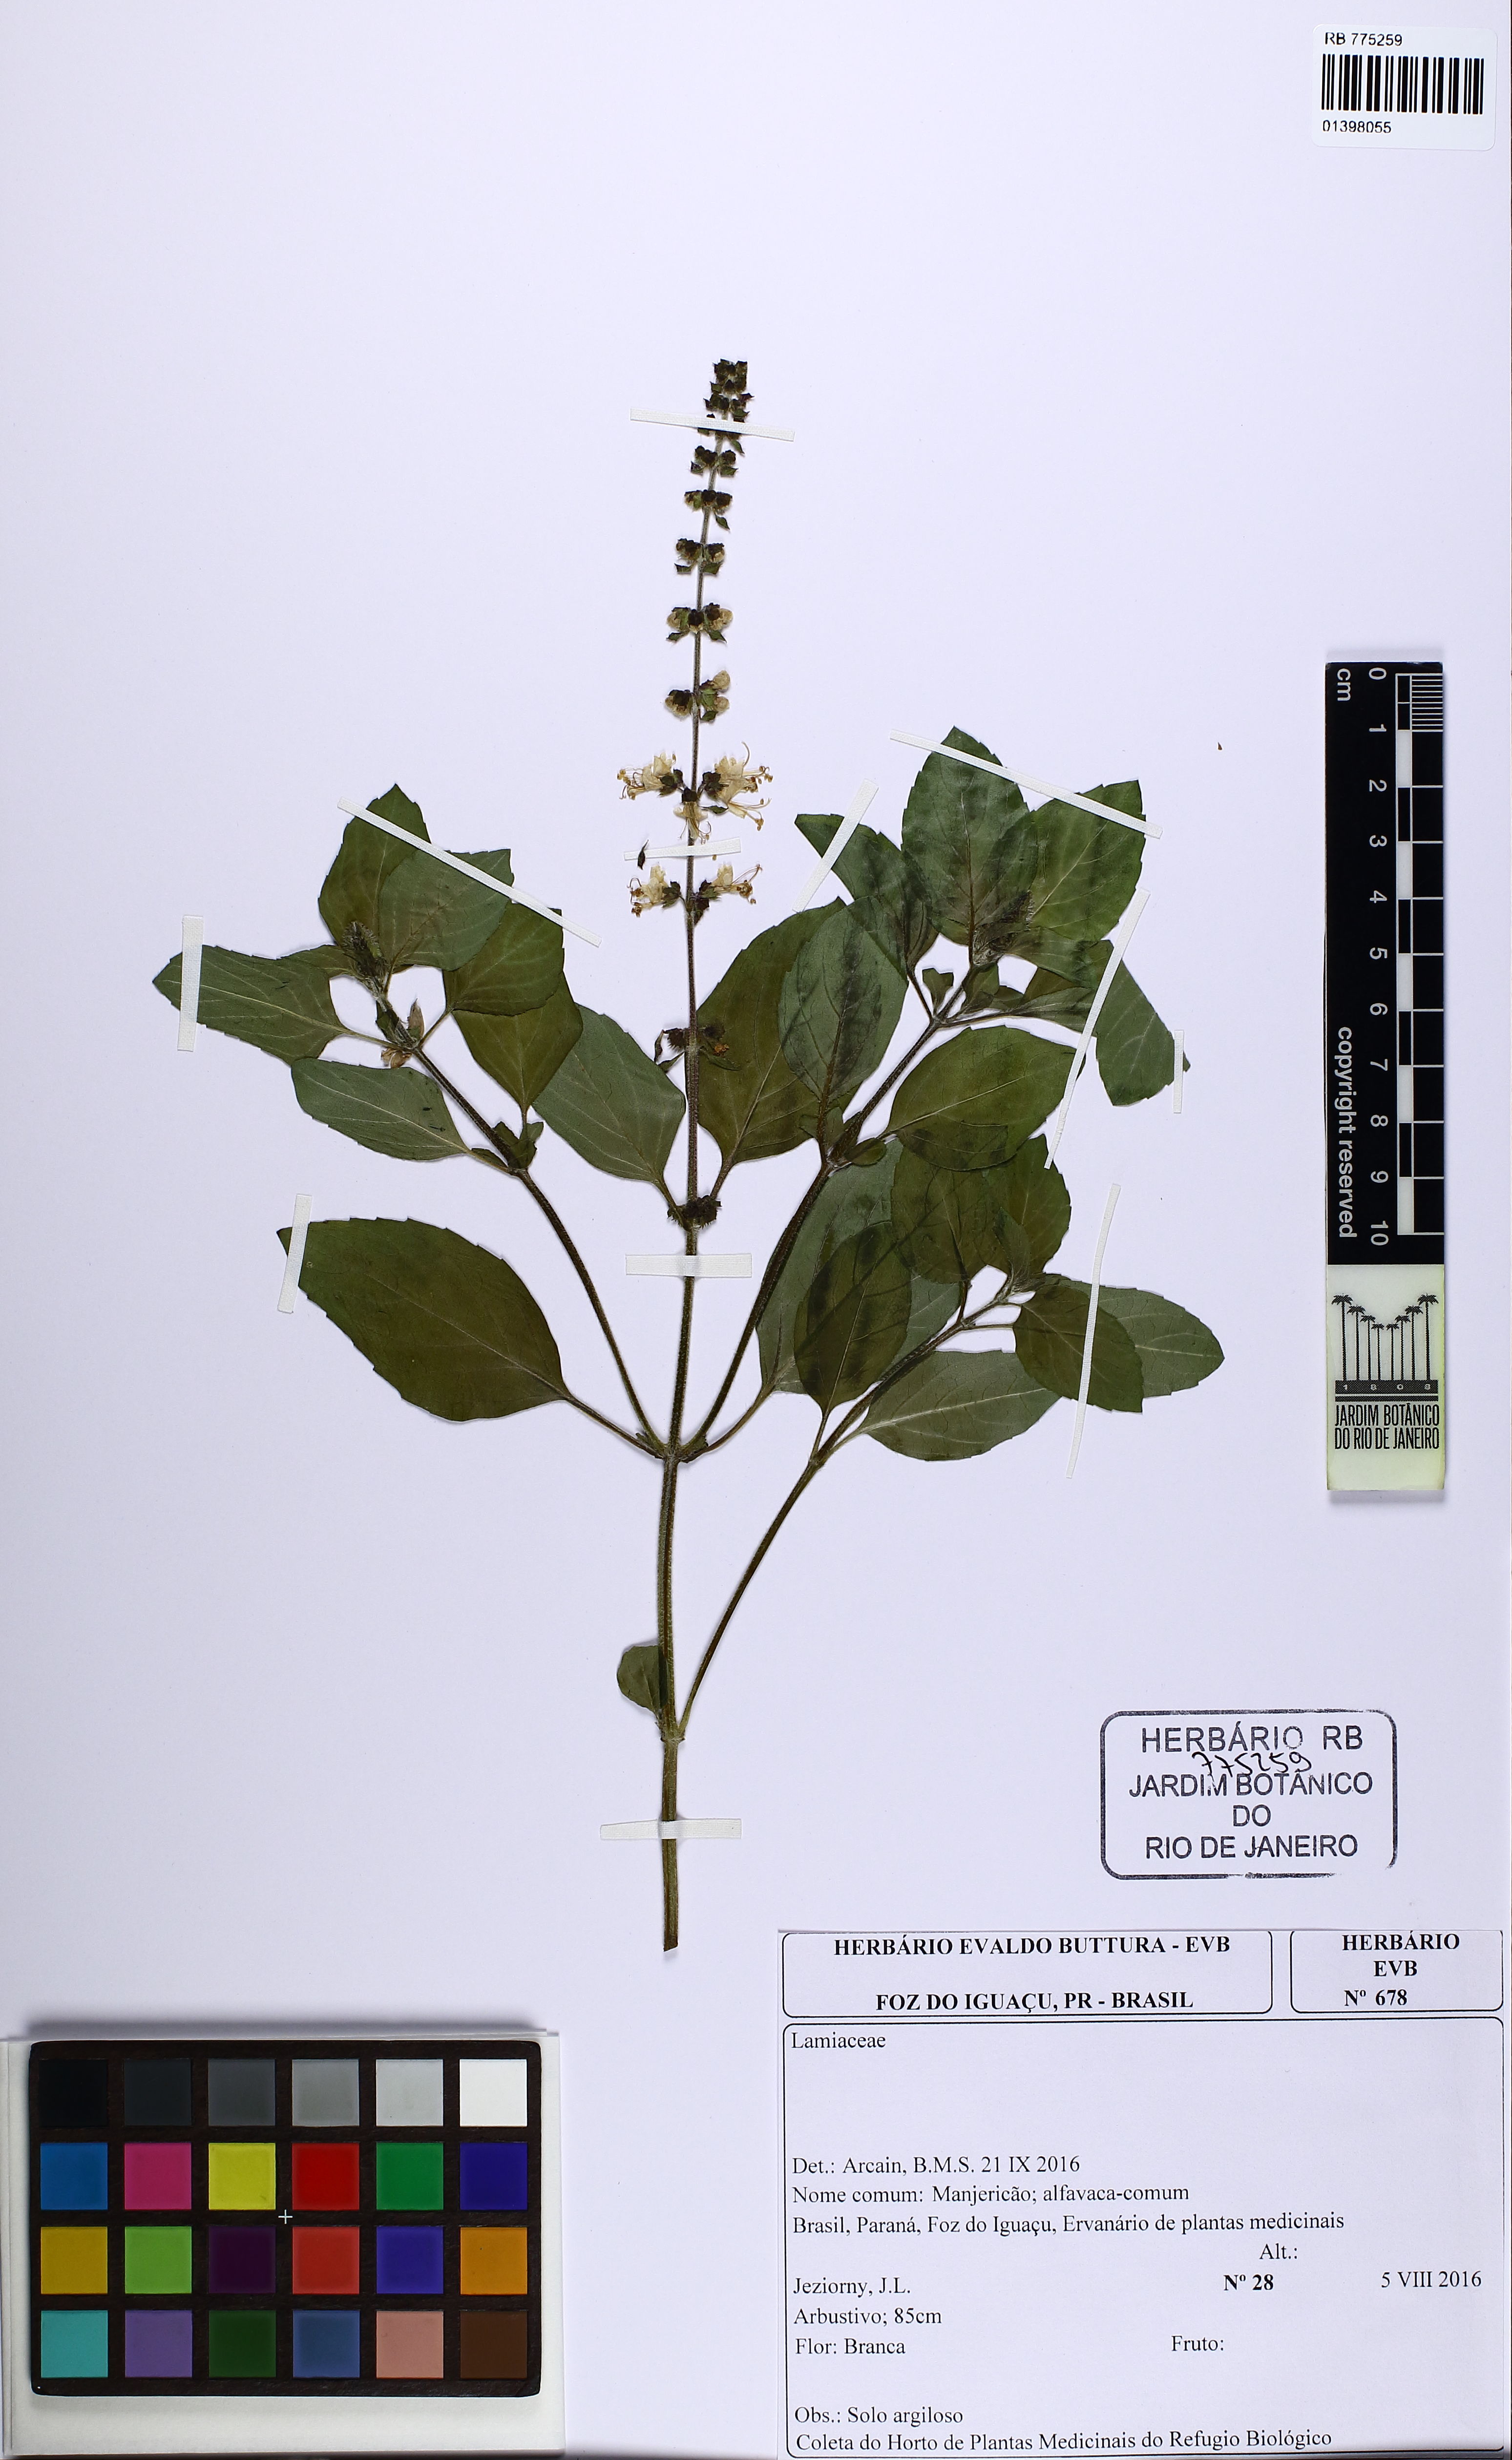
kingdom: Plantae
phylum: Tracheophyta
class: Magnoliopsida
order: Lamiales
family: Lamiaceae
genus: Ocimum
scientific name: Ocimum
